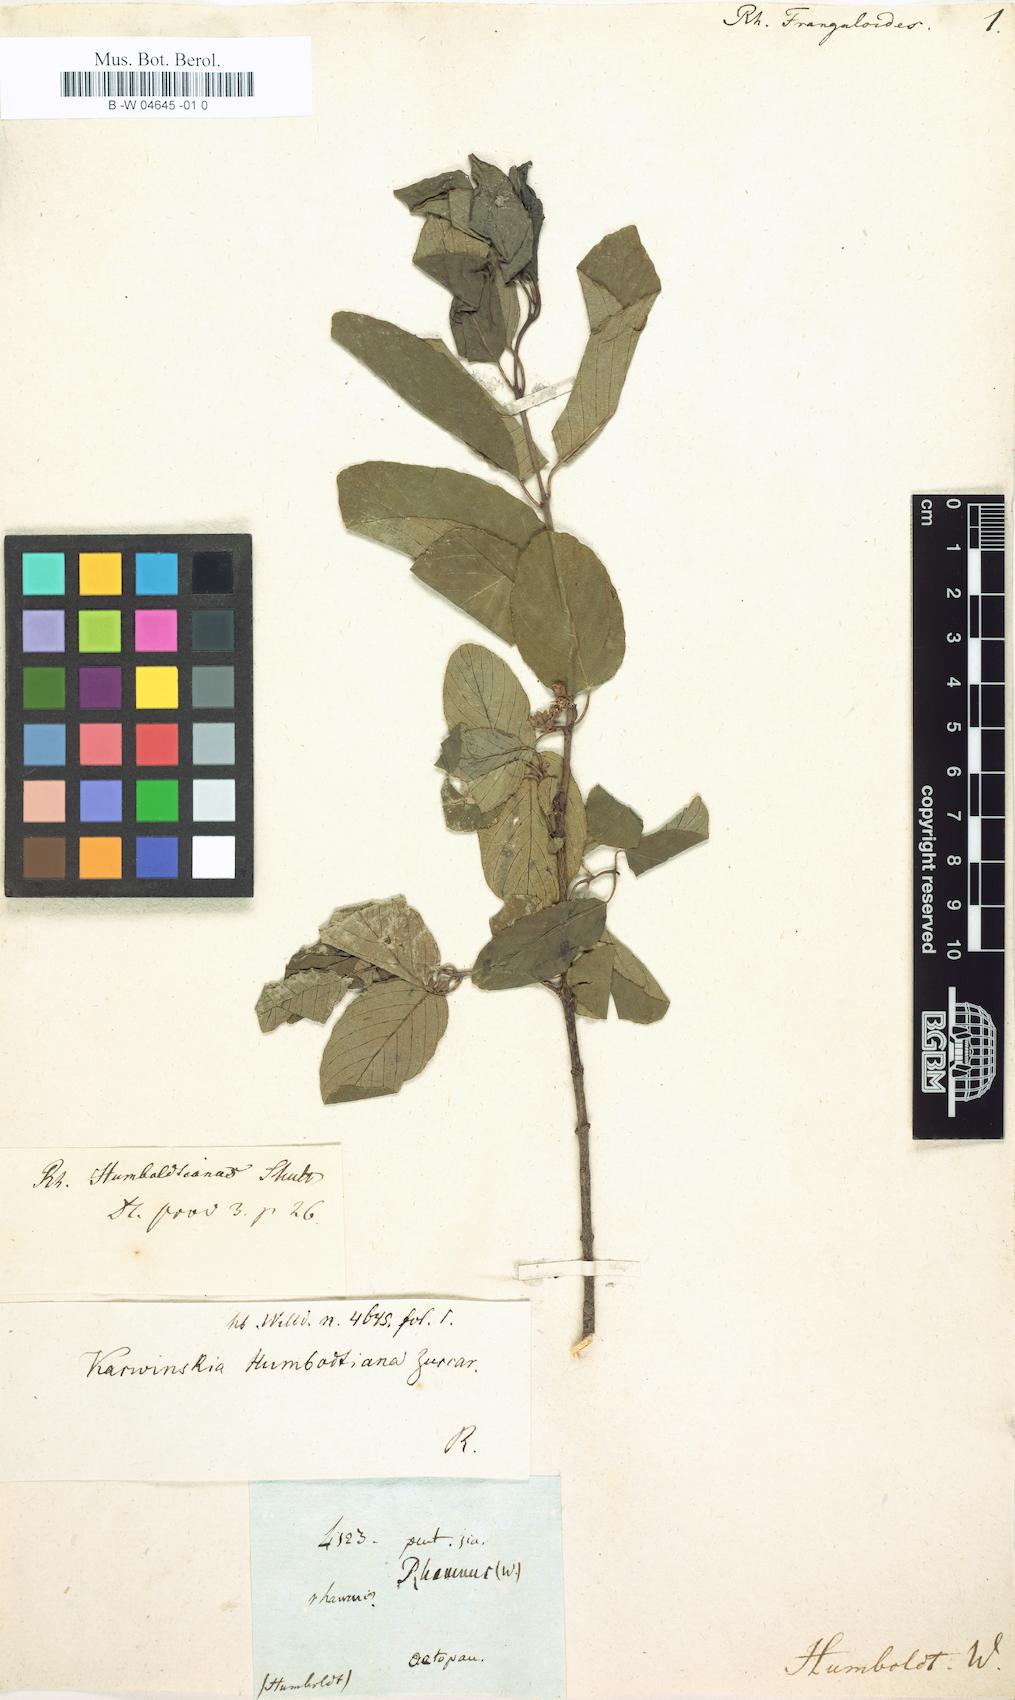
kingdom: Plantae
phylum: Tracheophyta
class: Magnoliopsida
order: Rosales
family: Rhamnaceae
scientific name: Rhamnaceae
